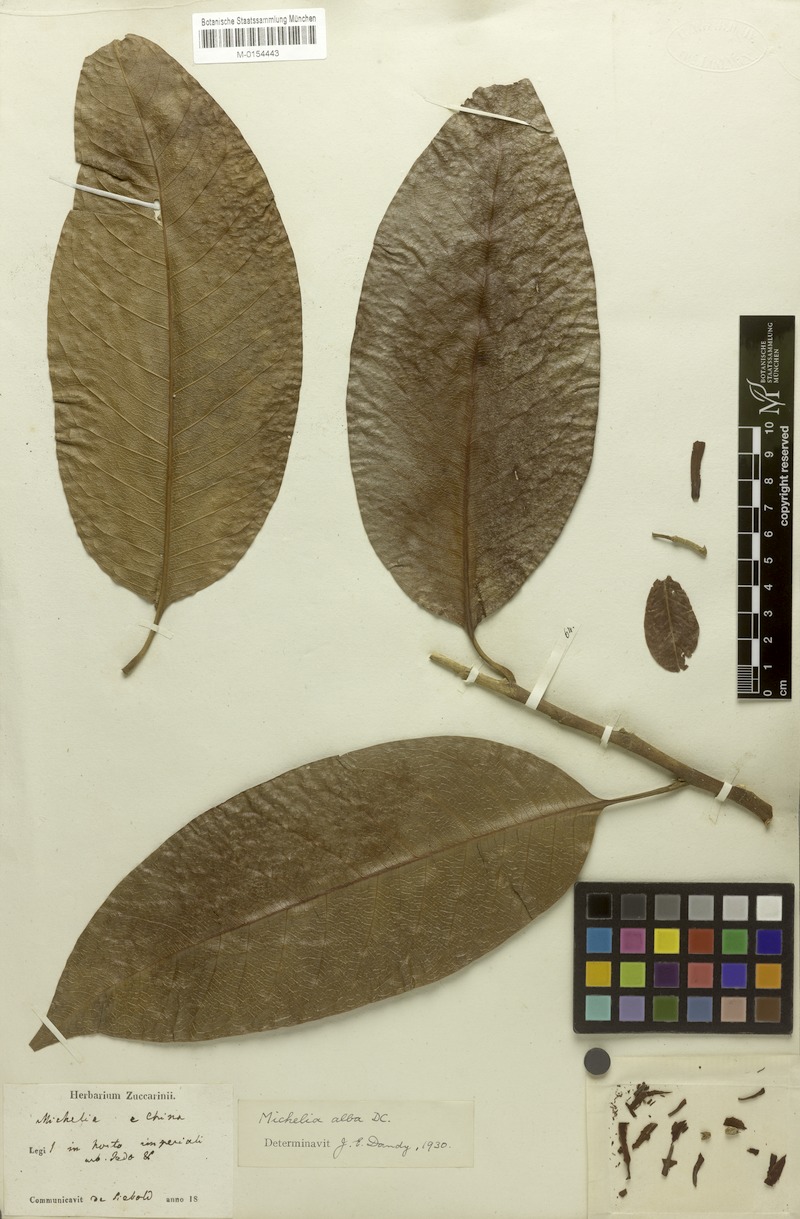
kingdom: Plantae
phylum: Tracheophyta
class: Magnoliopsida
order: Magnoliales
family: Magnoliaceae
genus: Magnolia
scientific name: Magnolia alba
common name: White champaca
